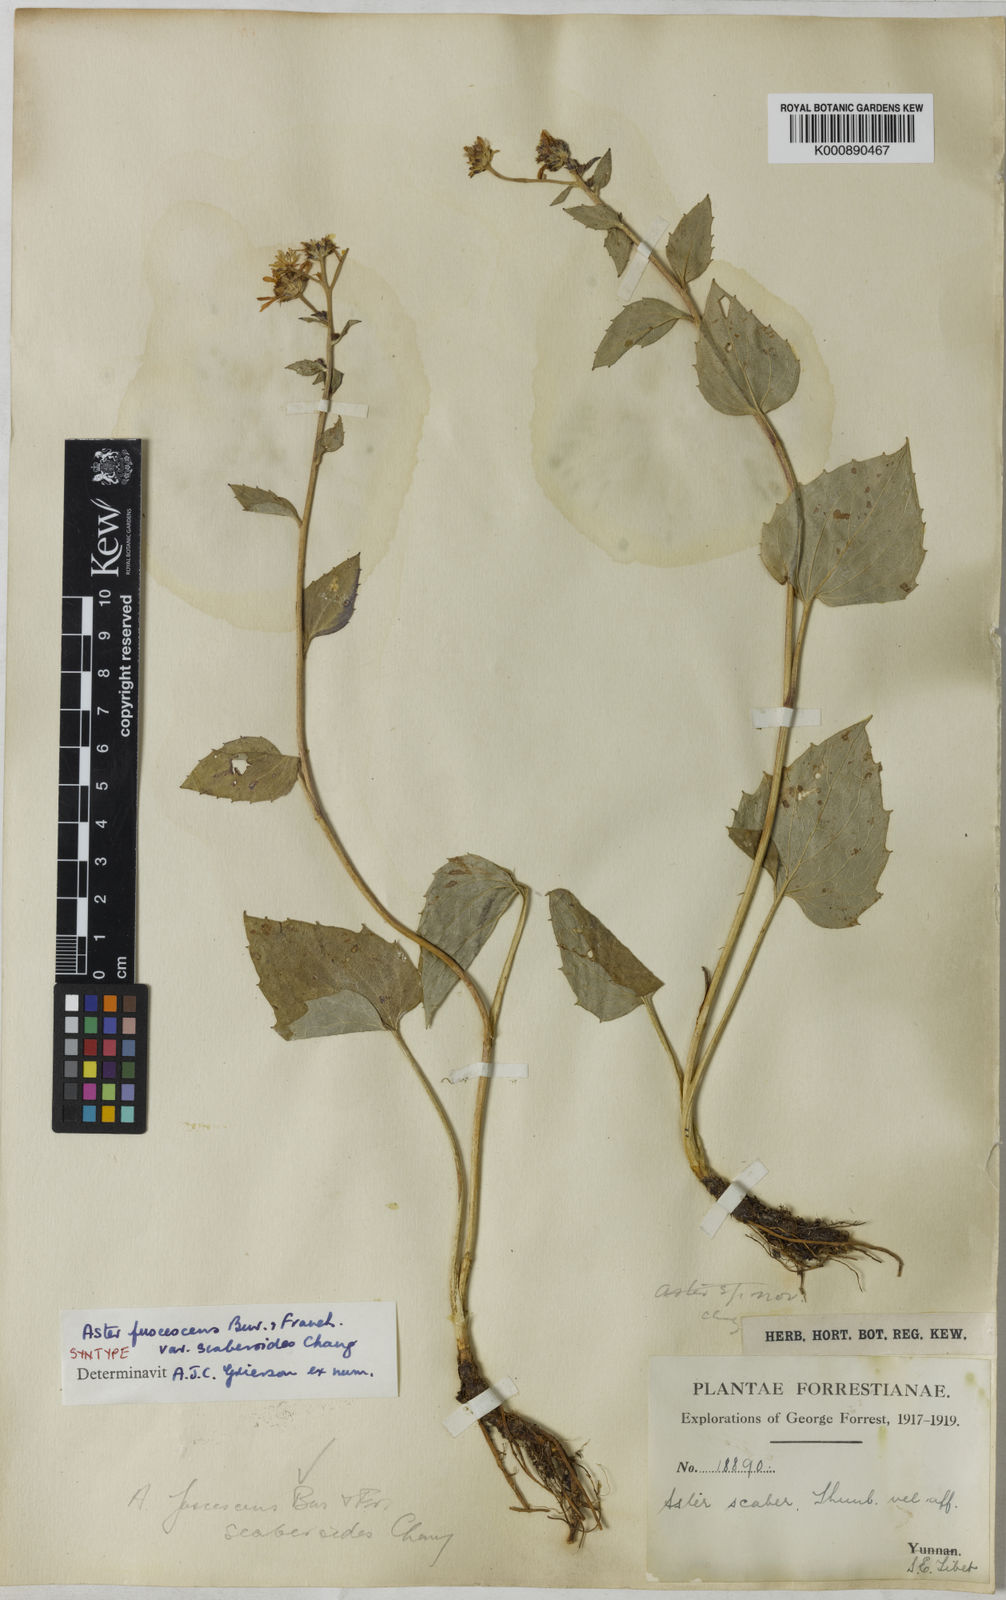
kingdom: Plantae
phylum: Tracheophyta
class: Magnoliopsida
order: Asterales
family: Asteraceae
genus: Griersonia
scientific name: Griersonia fuscescens
